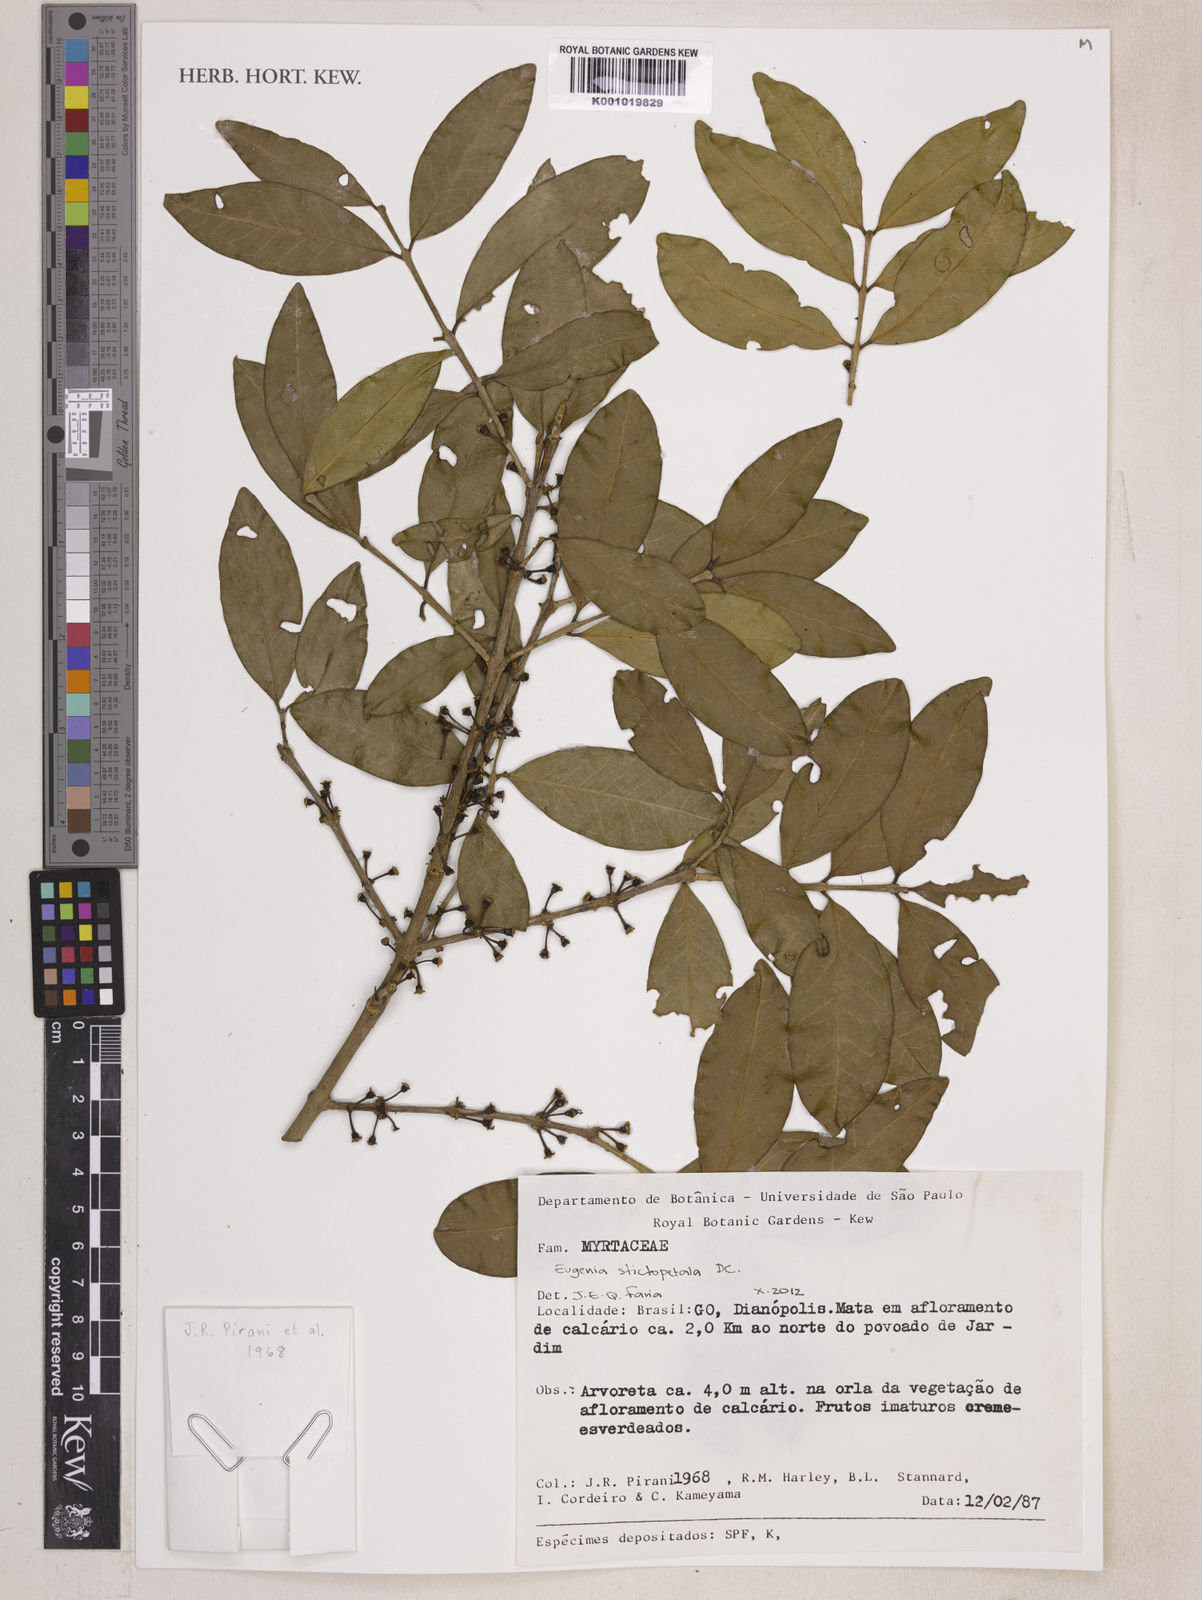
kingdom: Plantae
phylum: Tracheophyta
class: Magnoliopsida
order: Myrtales
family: Myrtaceae
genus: Eugenia
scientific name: Eugenia stictopetala
